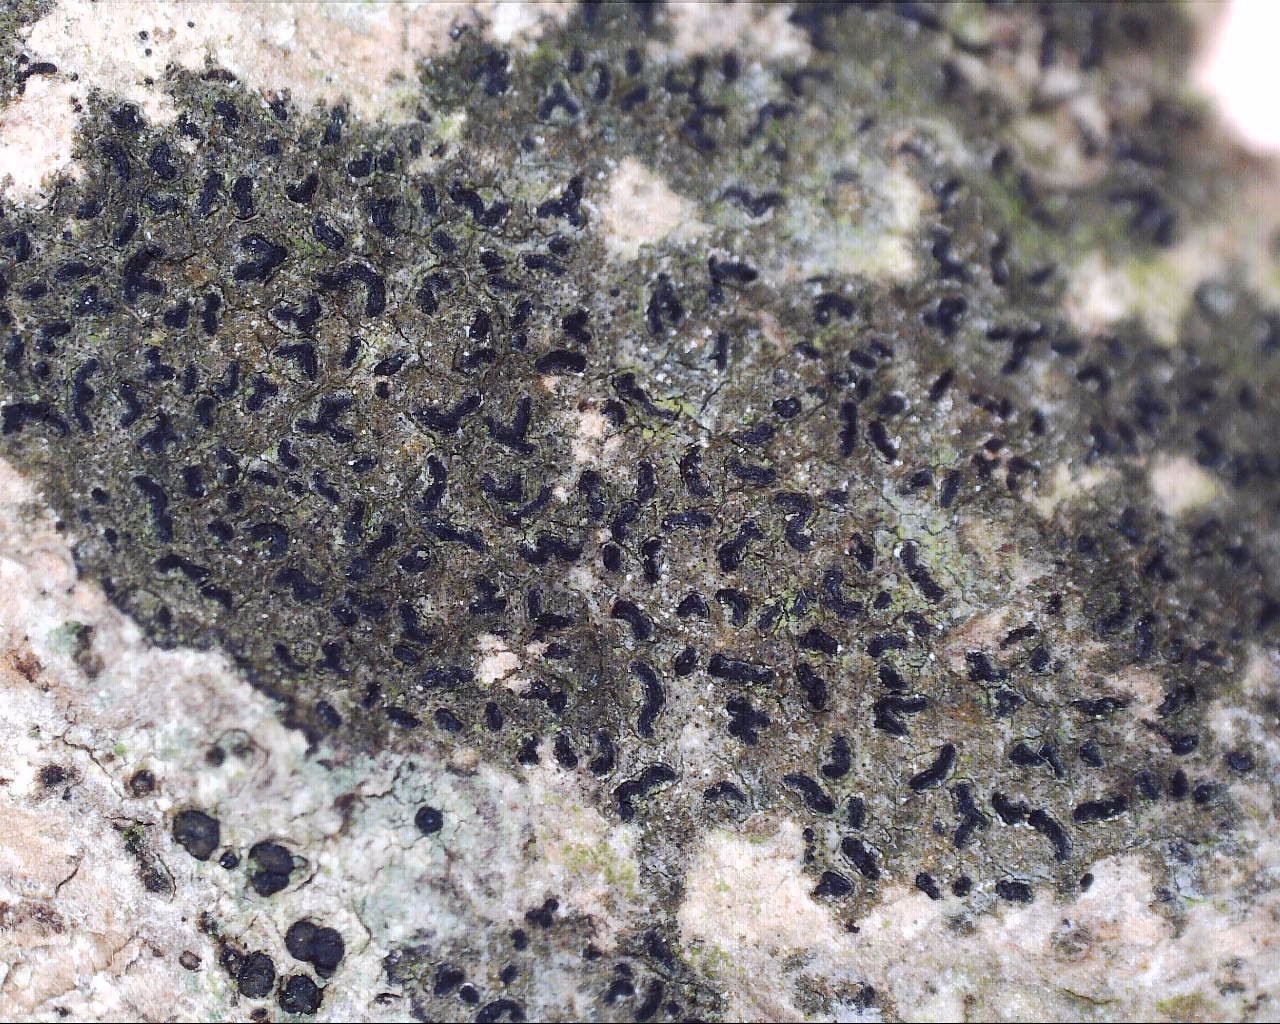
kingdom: Fungi
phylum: Ascomycota
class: Arthoniomycetes
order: Arthoniales
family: Lecanographaceae
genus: Alyxoria
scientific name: Alyxoria varia
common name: almindelig bogstavlav
